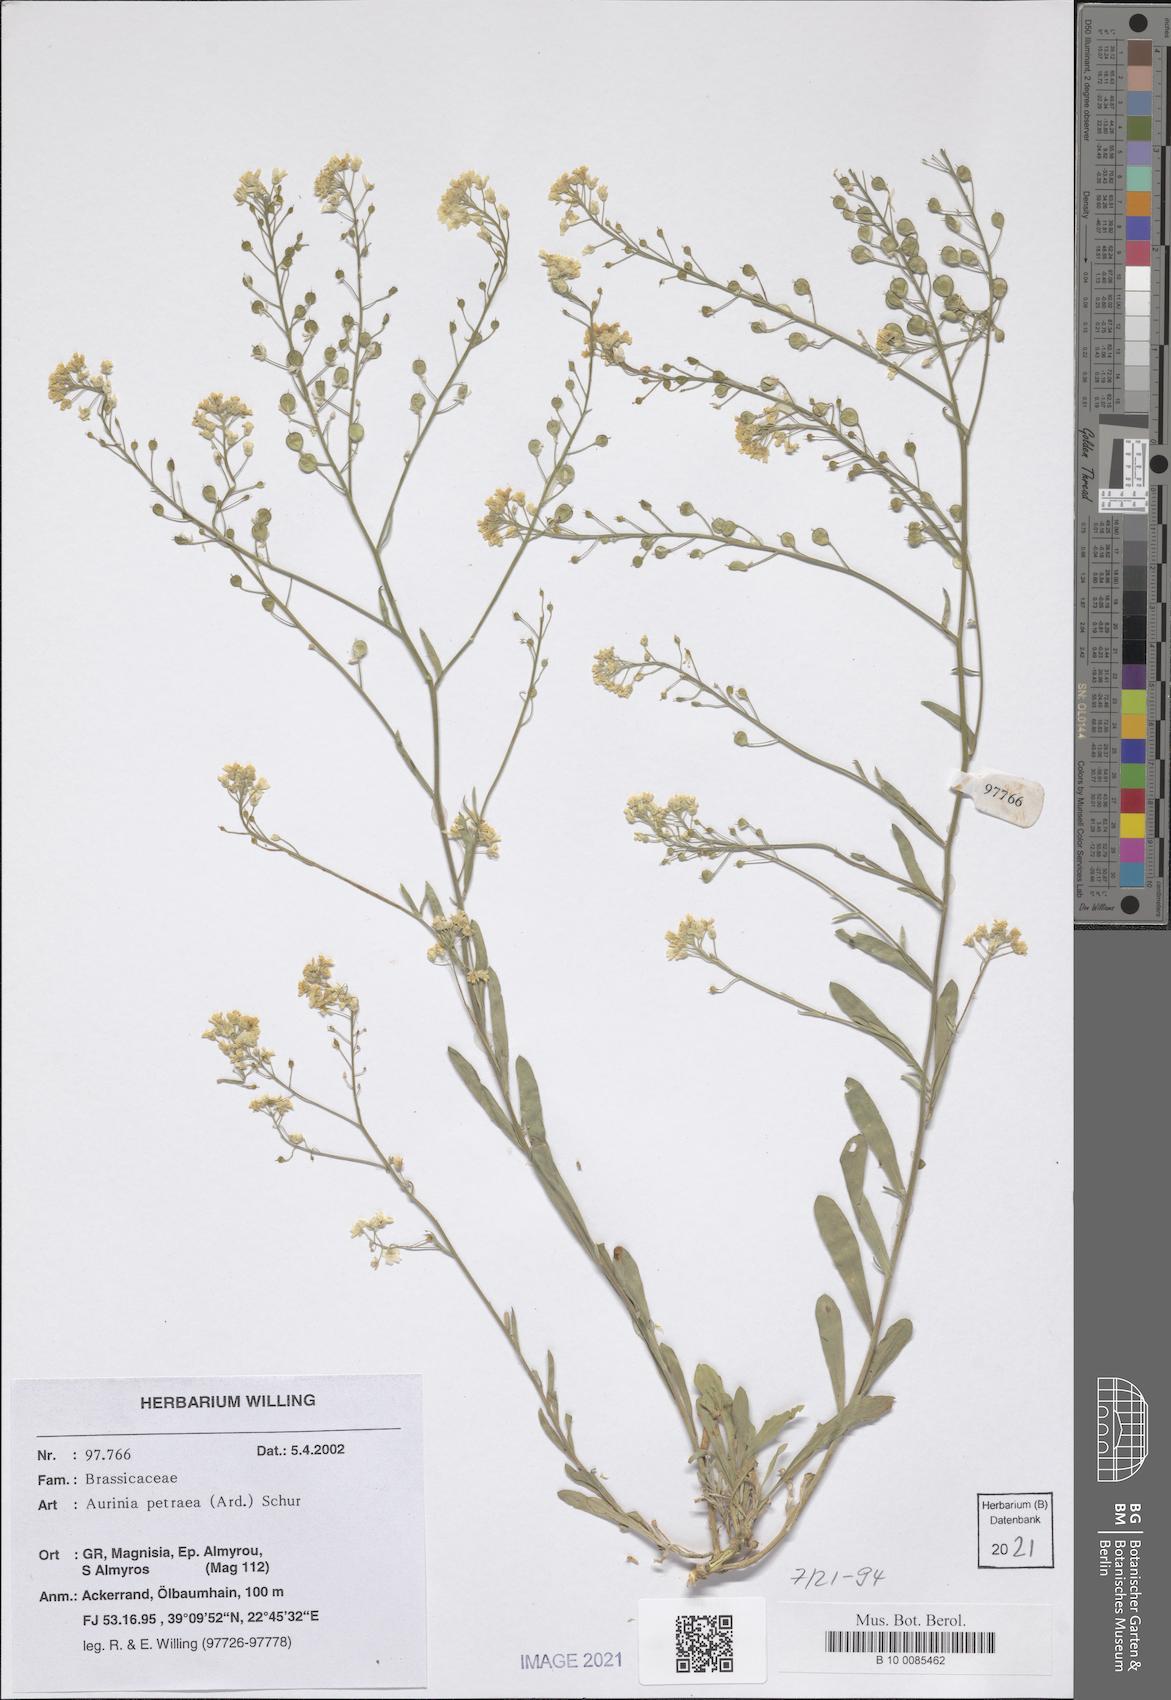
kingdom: Plantae
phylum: Tracheophyta
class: Magnoliopsida
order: Brassicales
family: Brassicaceae
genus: Aurinia
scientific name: Aurinia petraea
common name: Goldentuft
